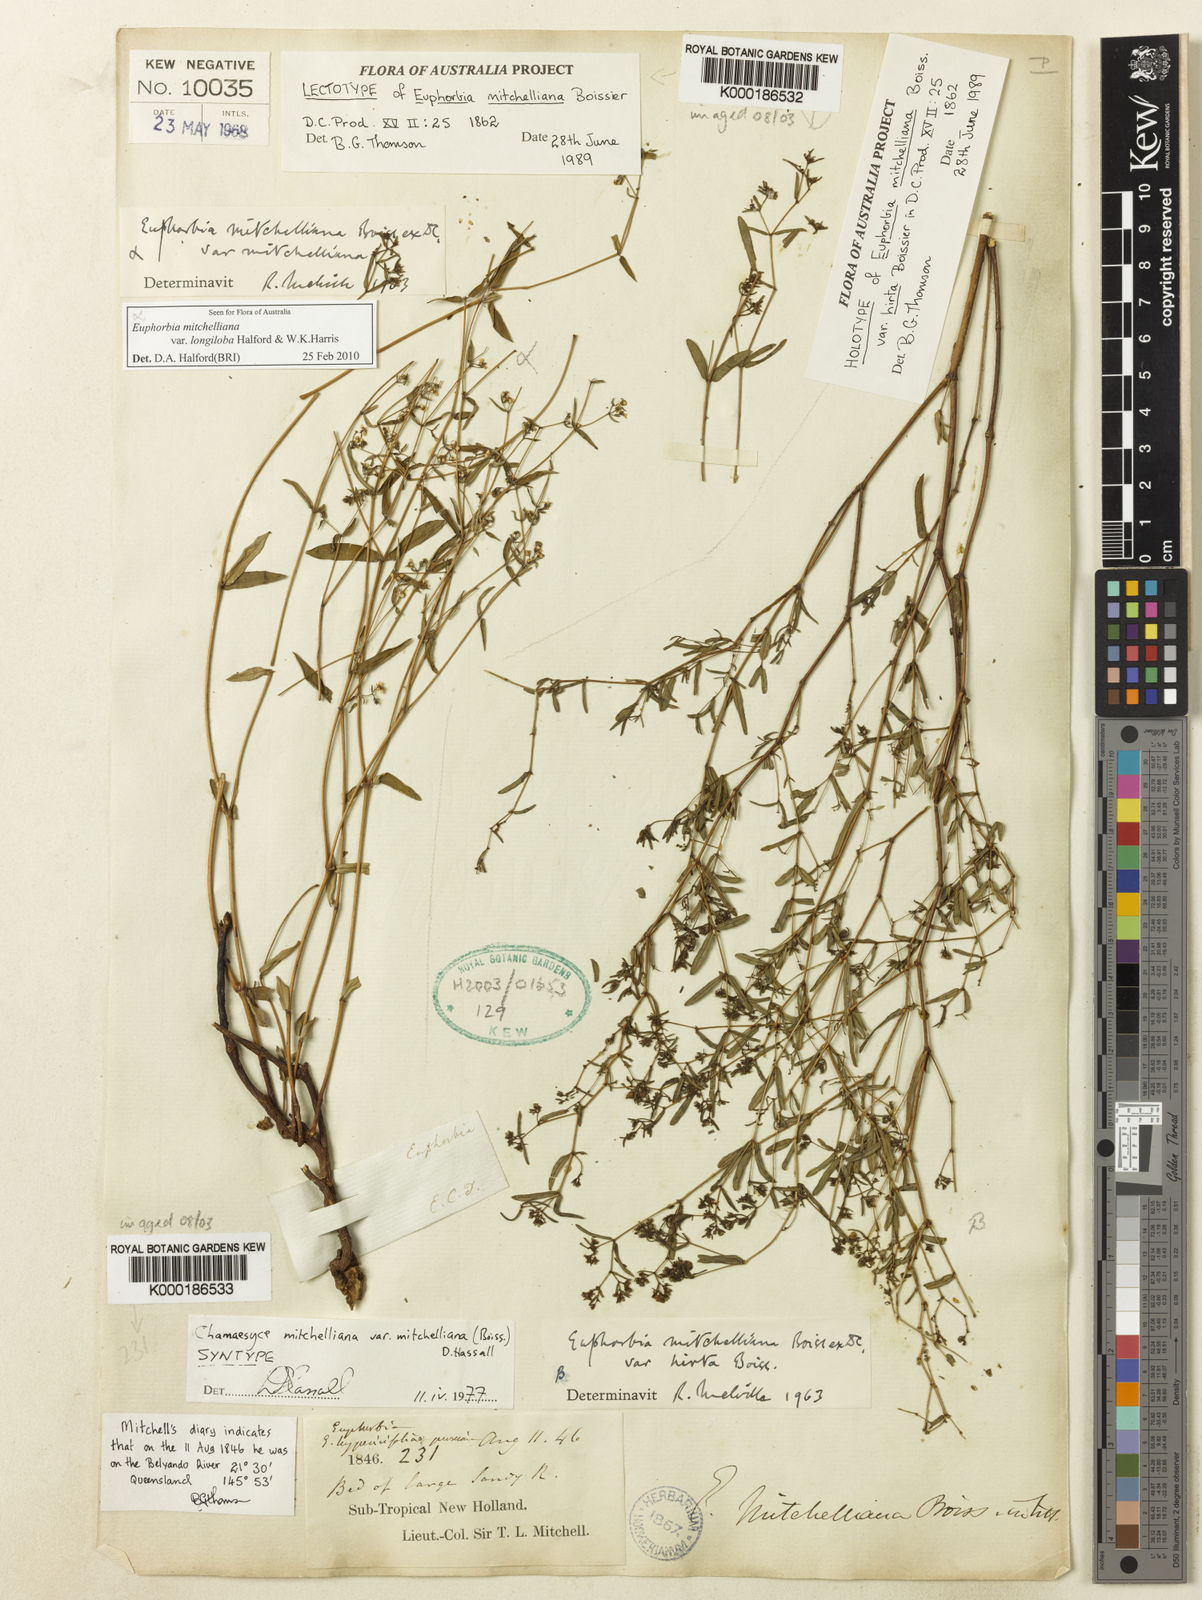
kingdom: Plantae
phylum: Tracheophyta
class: Magnoliopsida
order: Malpighiales
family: Euphorbiaceae
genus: Euphorbia
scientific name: Euphorbia mitchelliana
